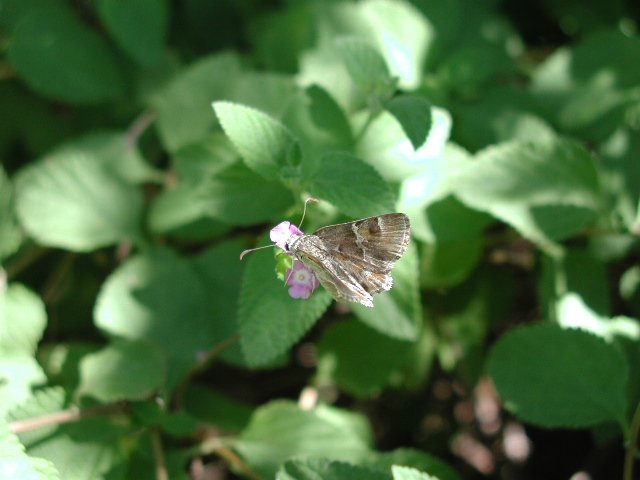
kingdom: Animalia
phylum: Arthropoda
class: Insecta
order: Lepidoptera
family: Hesperiidae
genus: Systasea
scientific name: Systasea zampa
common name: Arizona Powdered-Skipper
